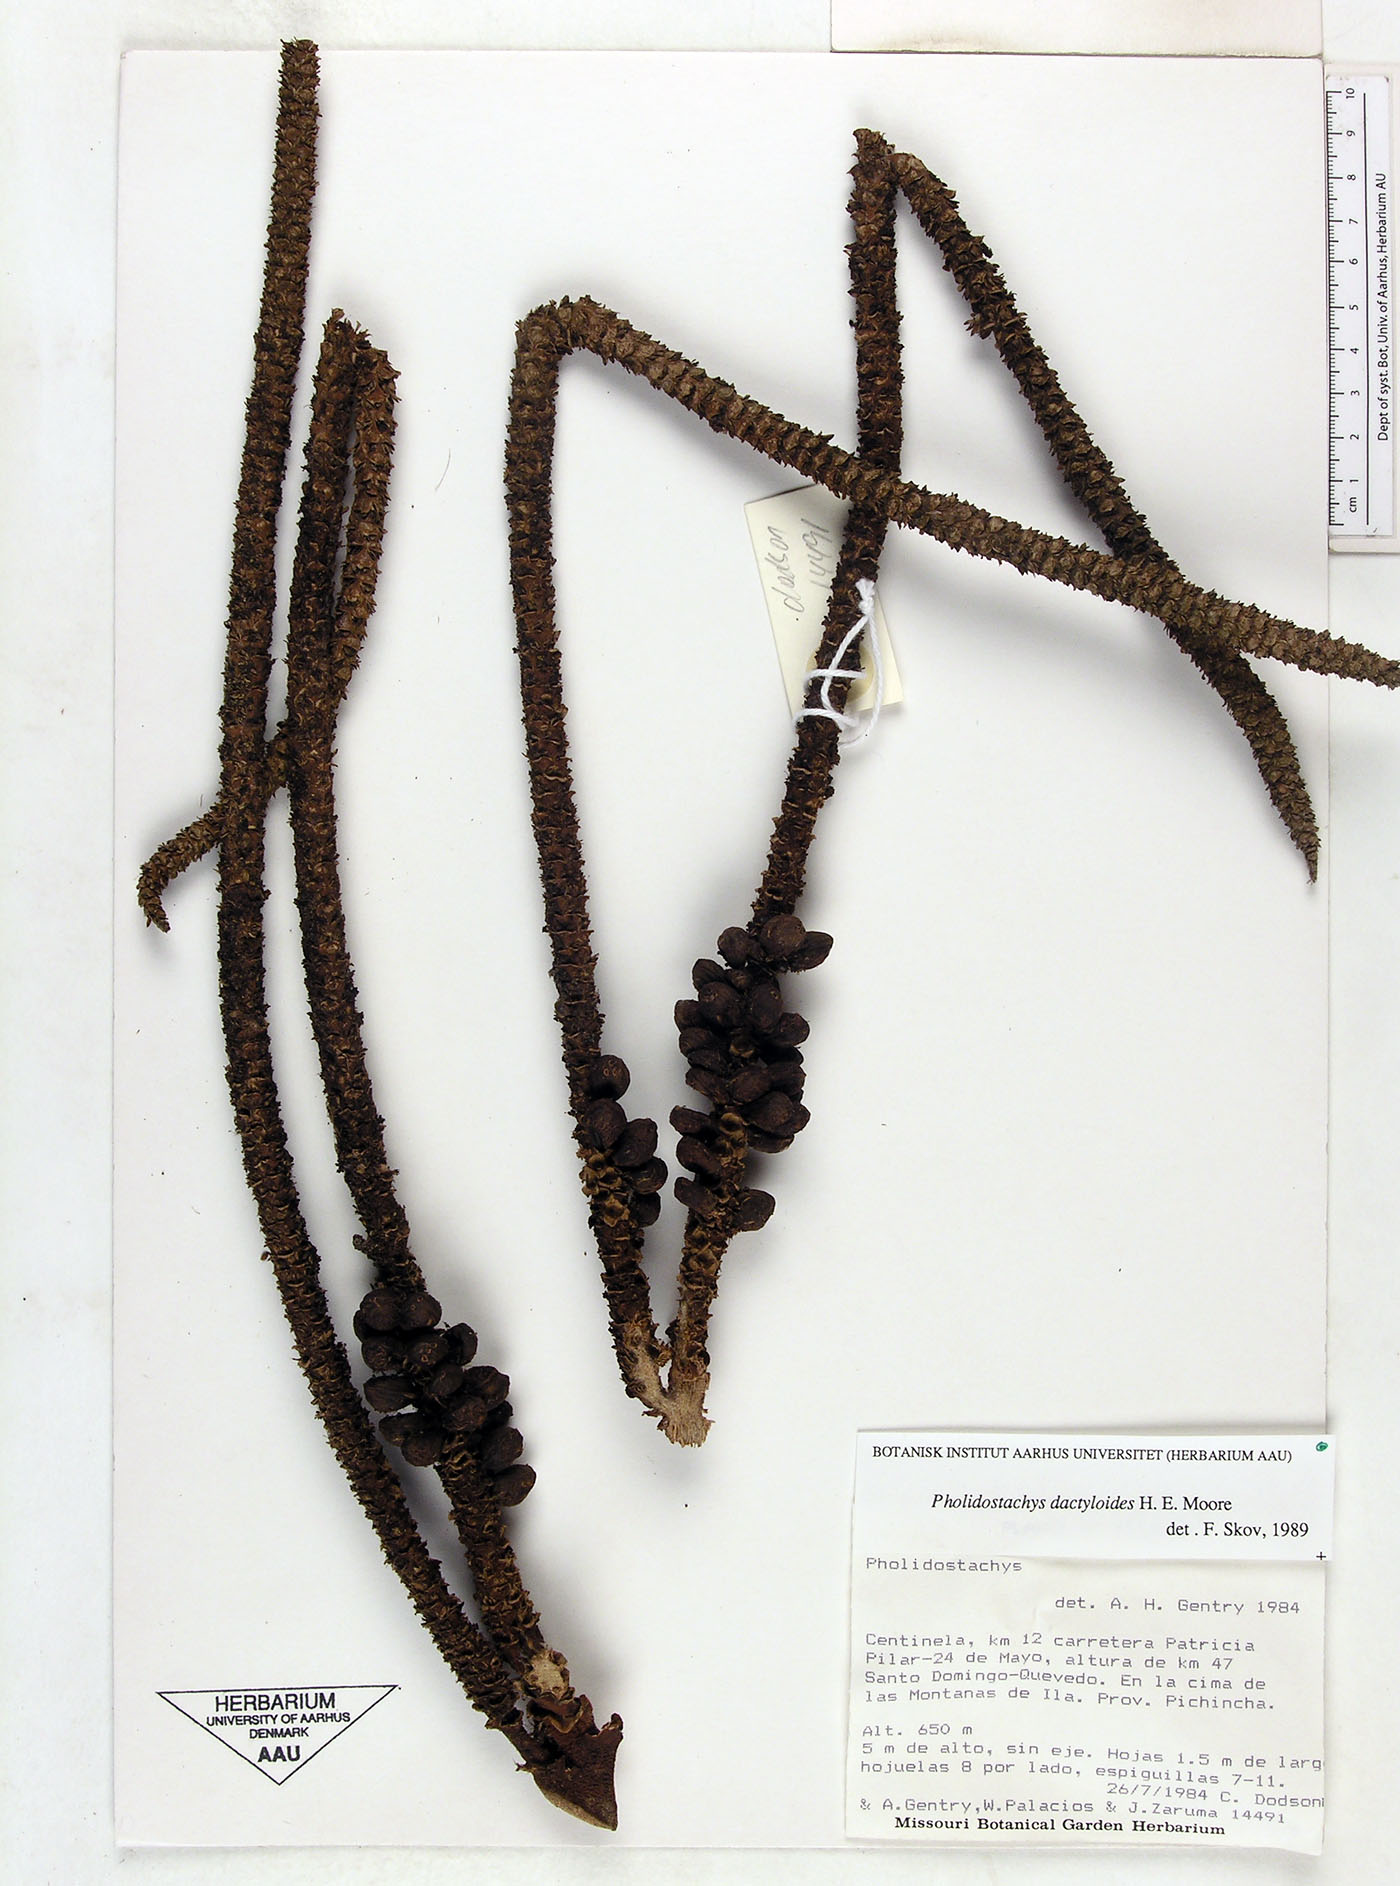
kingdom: Plantae
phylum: Tracheophyta
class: Liliopsida
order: Arecales
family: Arecaceae
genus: Pholidostachys
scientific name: Pholidostachys dactyloides
